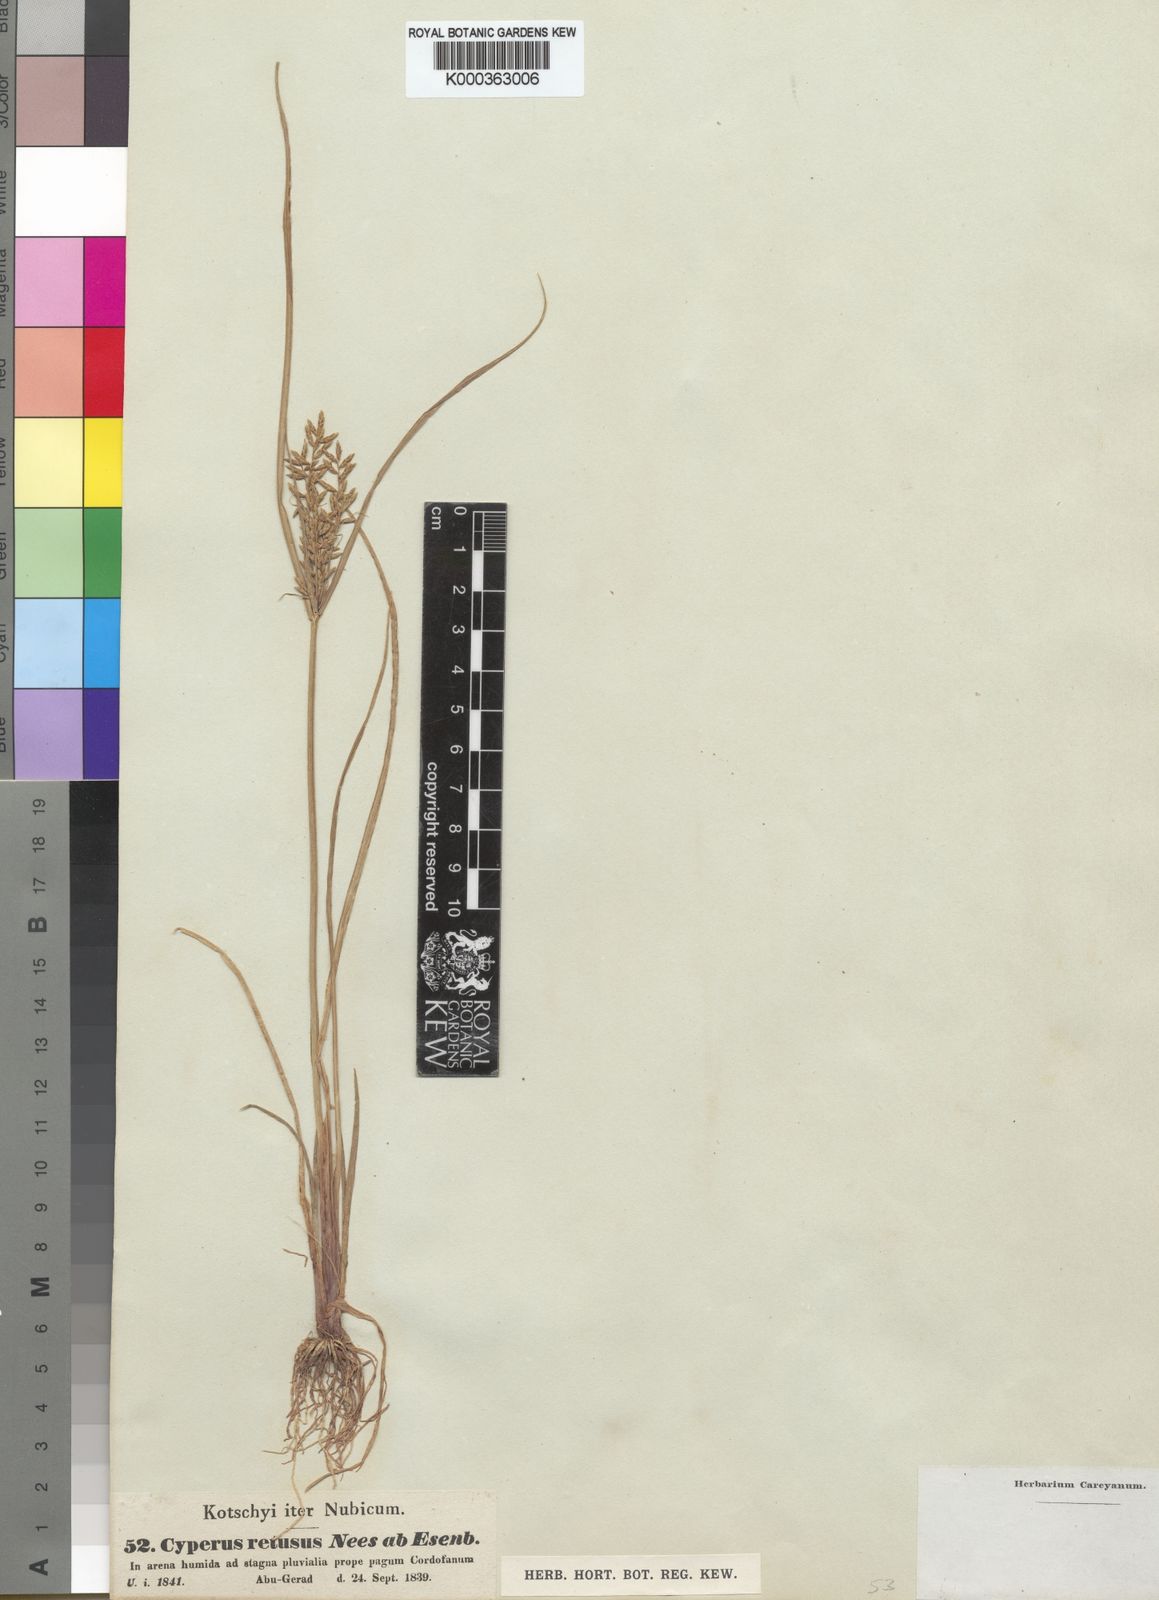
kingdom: Plantae
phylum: Tracheophyta
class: Liliopsida
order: Poales
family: Cyperaceae
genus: Cyperus
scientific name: Cyperus macrostachyos
